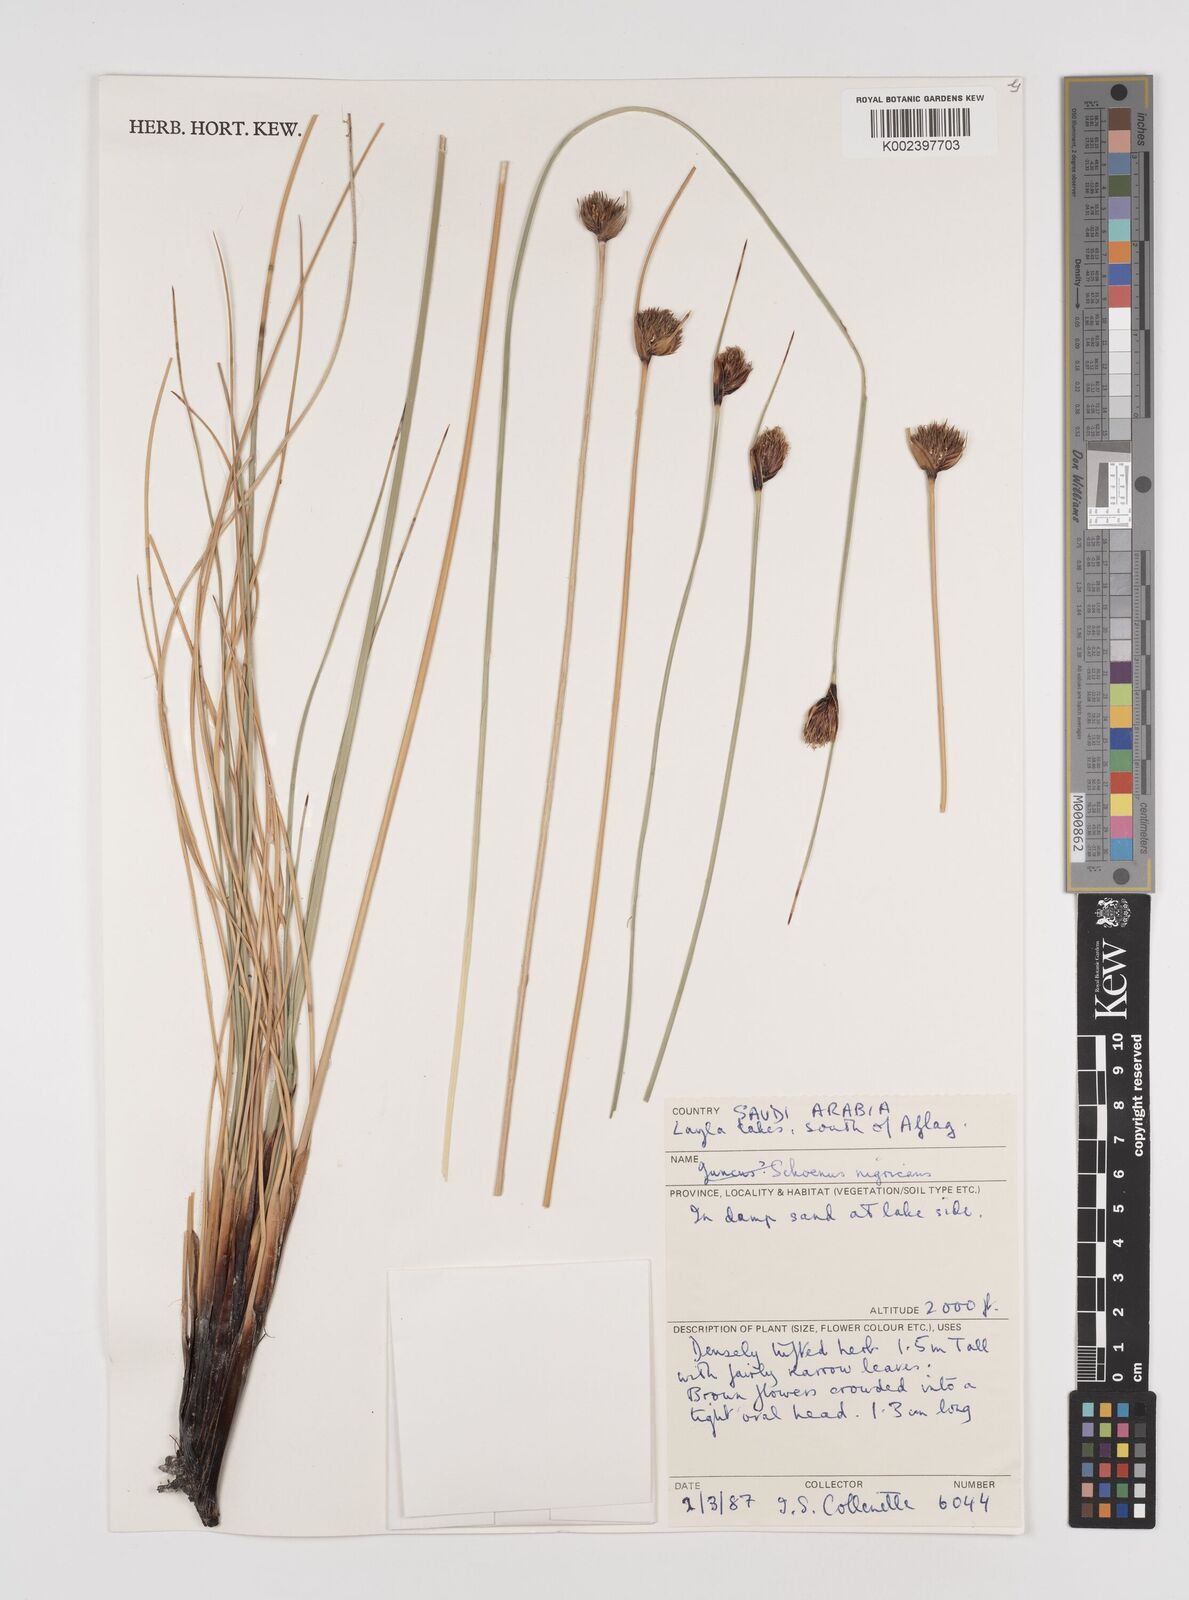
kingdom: Plantae
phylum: Tracheophyta
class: Liliopsida
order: Poales
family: Cyperaceae
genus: Schoenus
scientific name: Schoenus nigricans
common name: Black bog-rush
